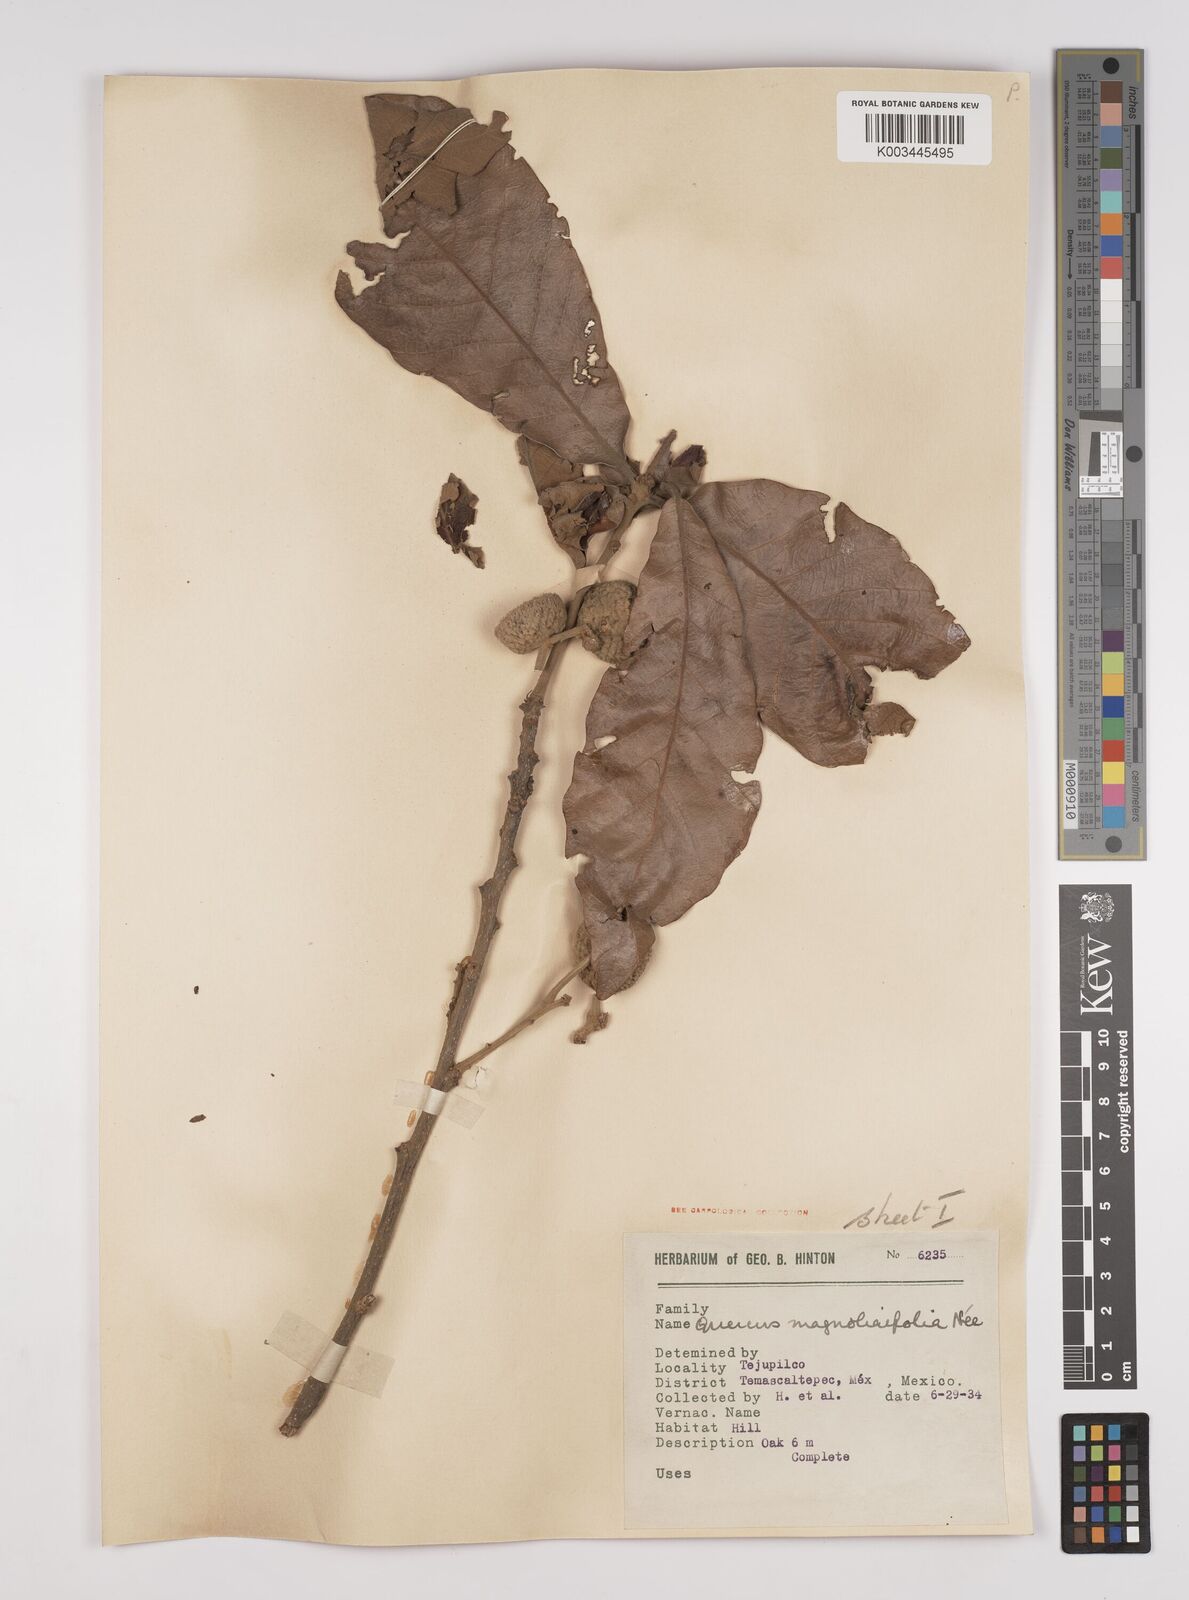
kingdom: Plantae
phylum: Tracheophyta
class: Magnoliopsida
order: Fagales
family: Fagaceae
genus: Quercus
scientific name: Quercus magnoliifolia
